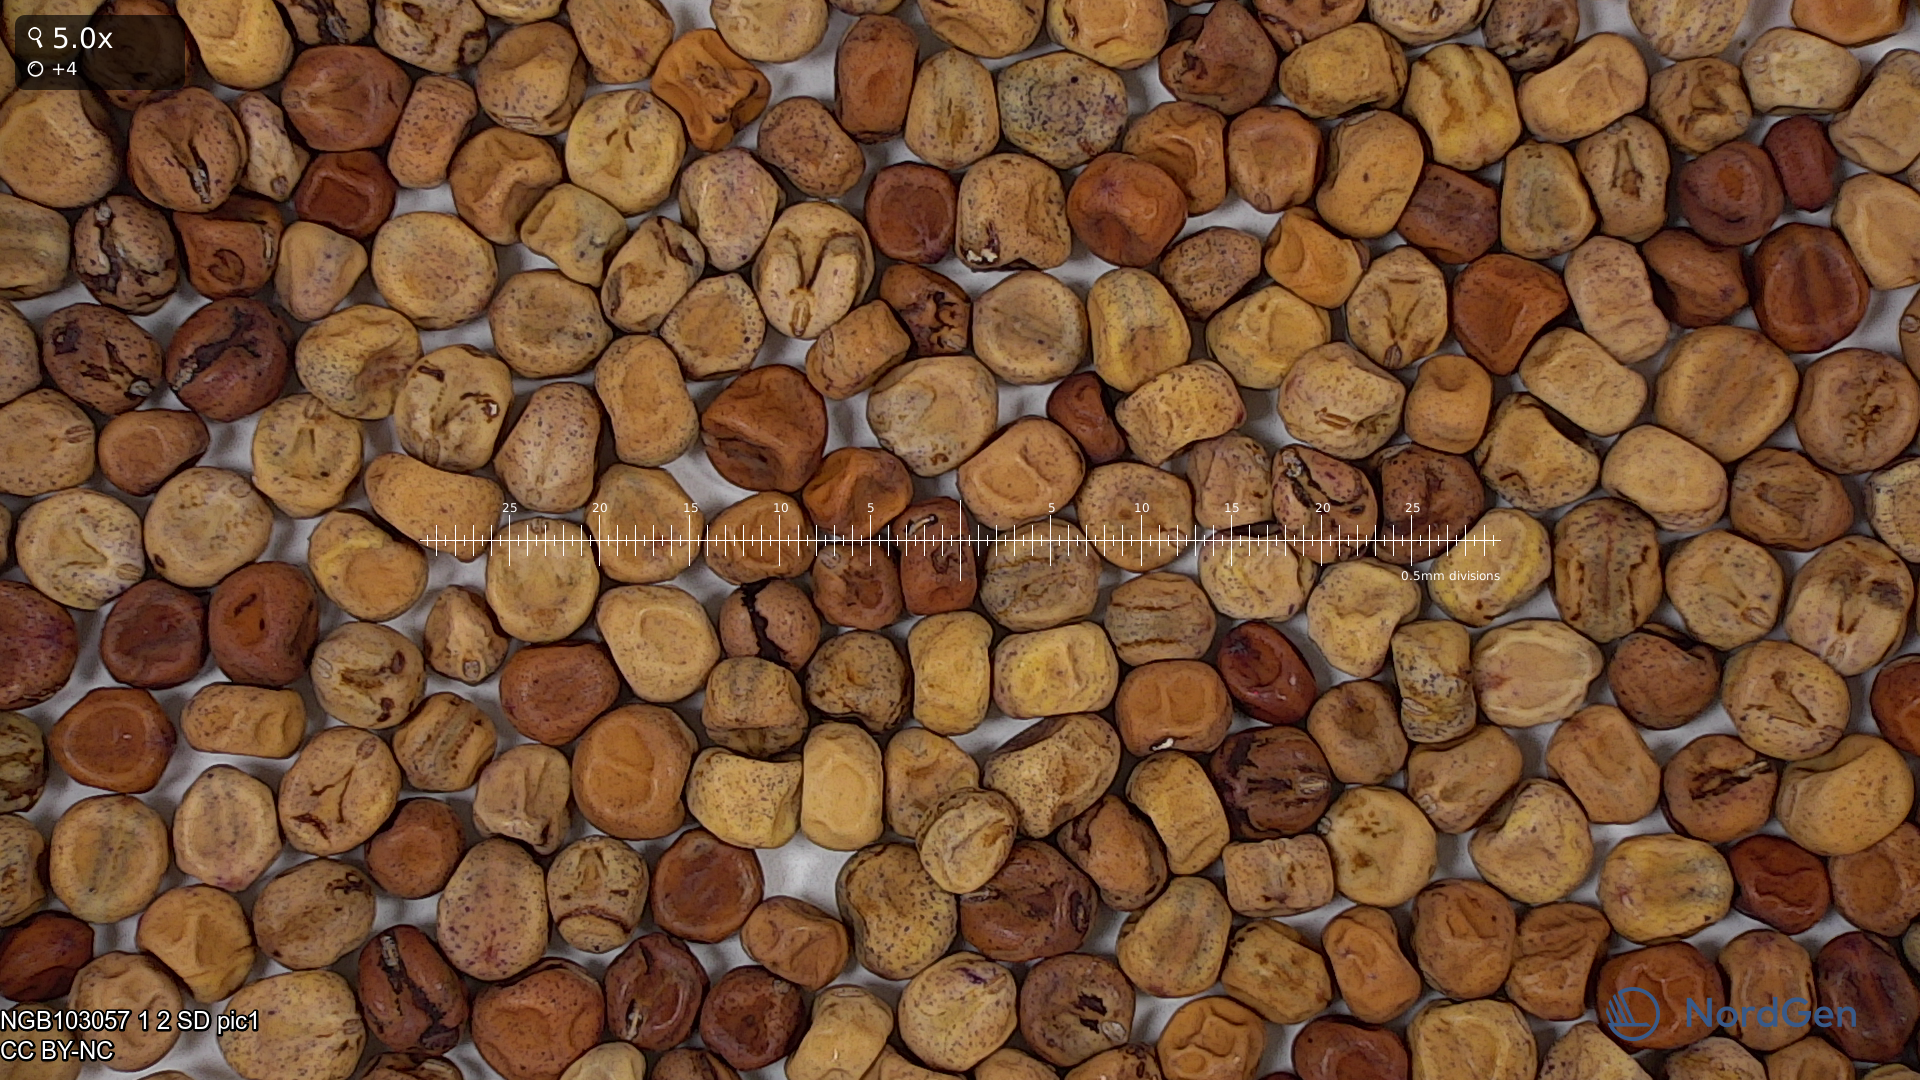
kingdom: Plantae
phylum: Tracheophyta
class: Magnoliopsida
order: Fabales
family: Fabaceae
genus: Lathyrus
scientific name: Lathyrus oleraceus
